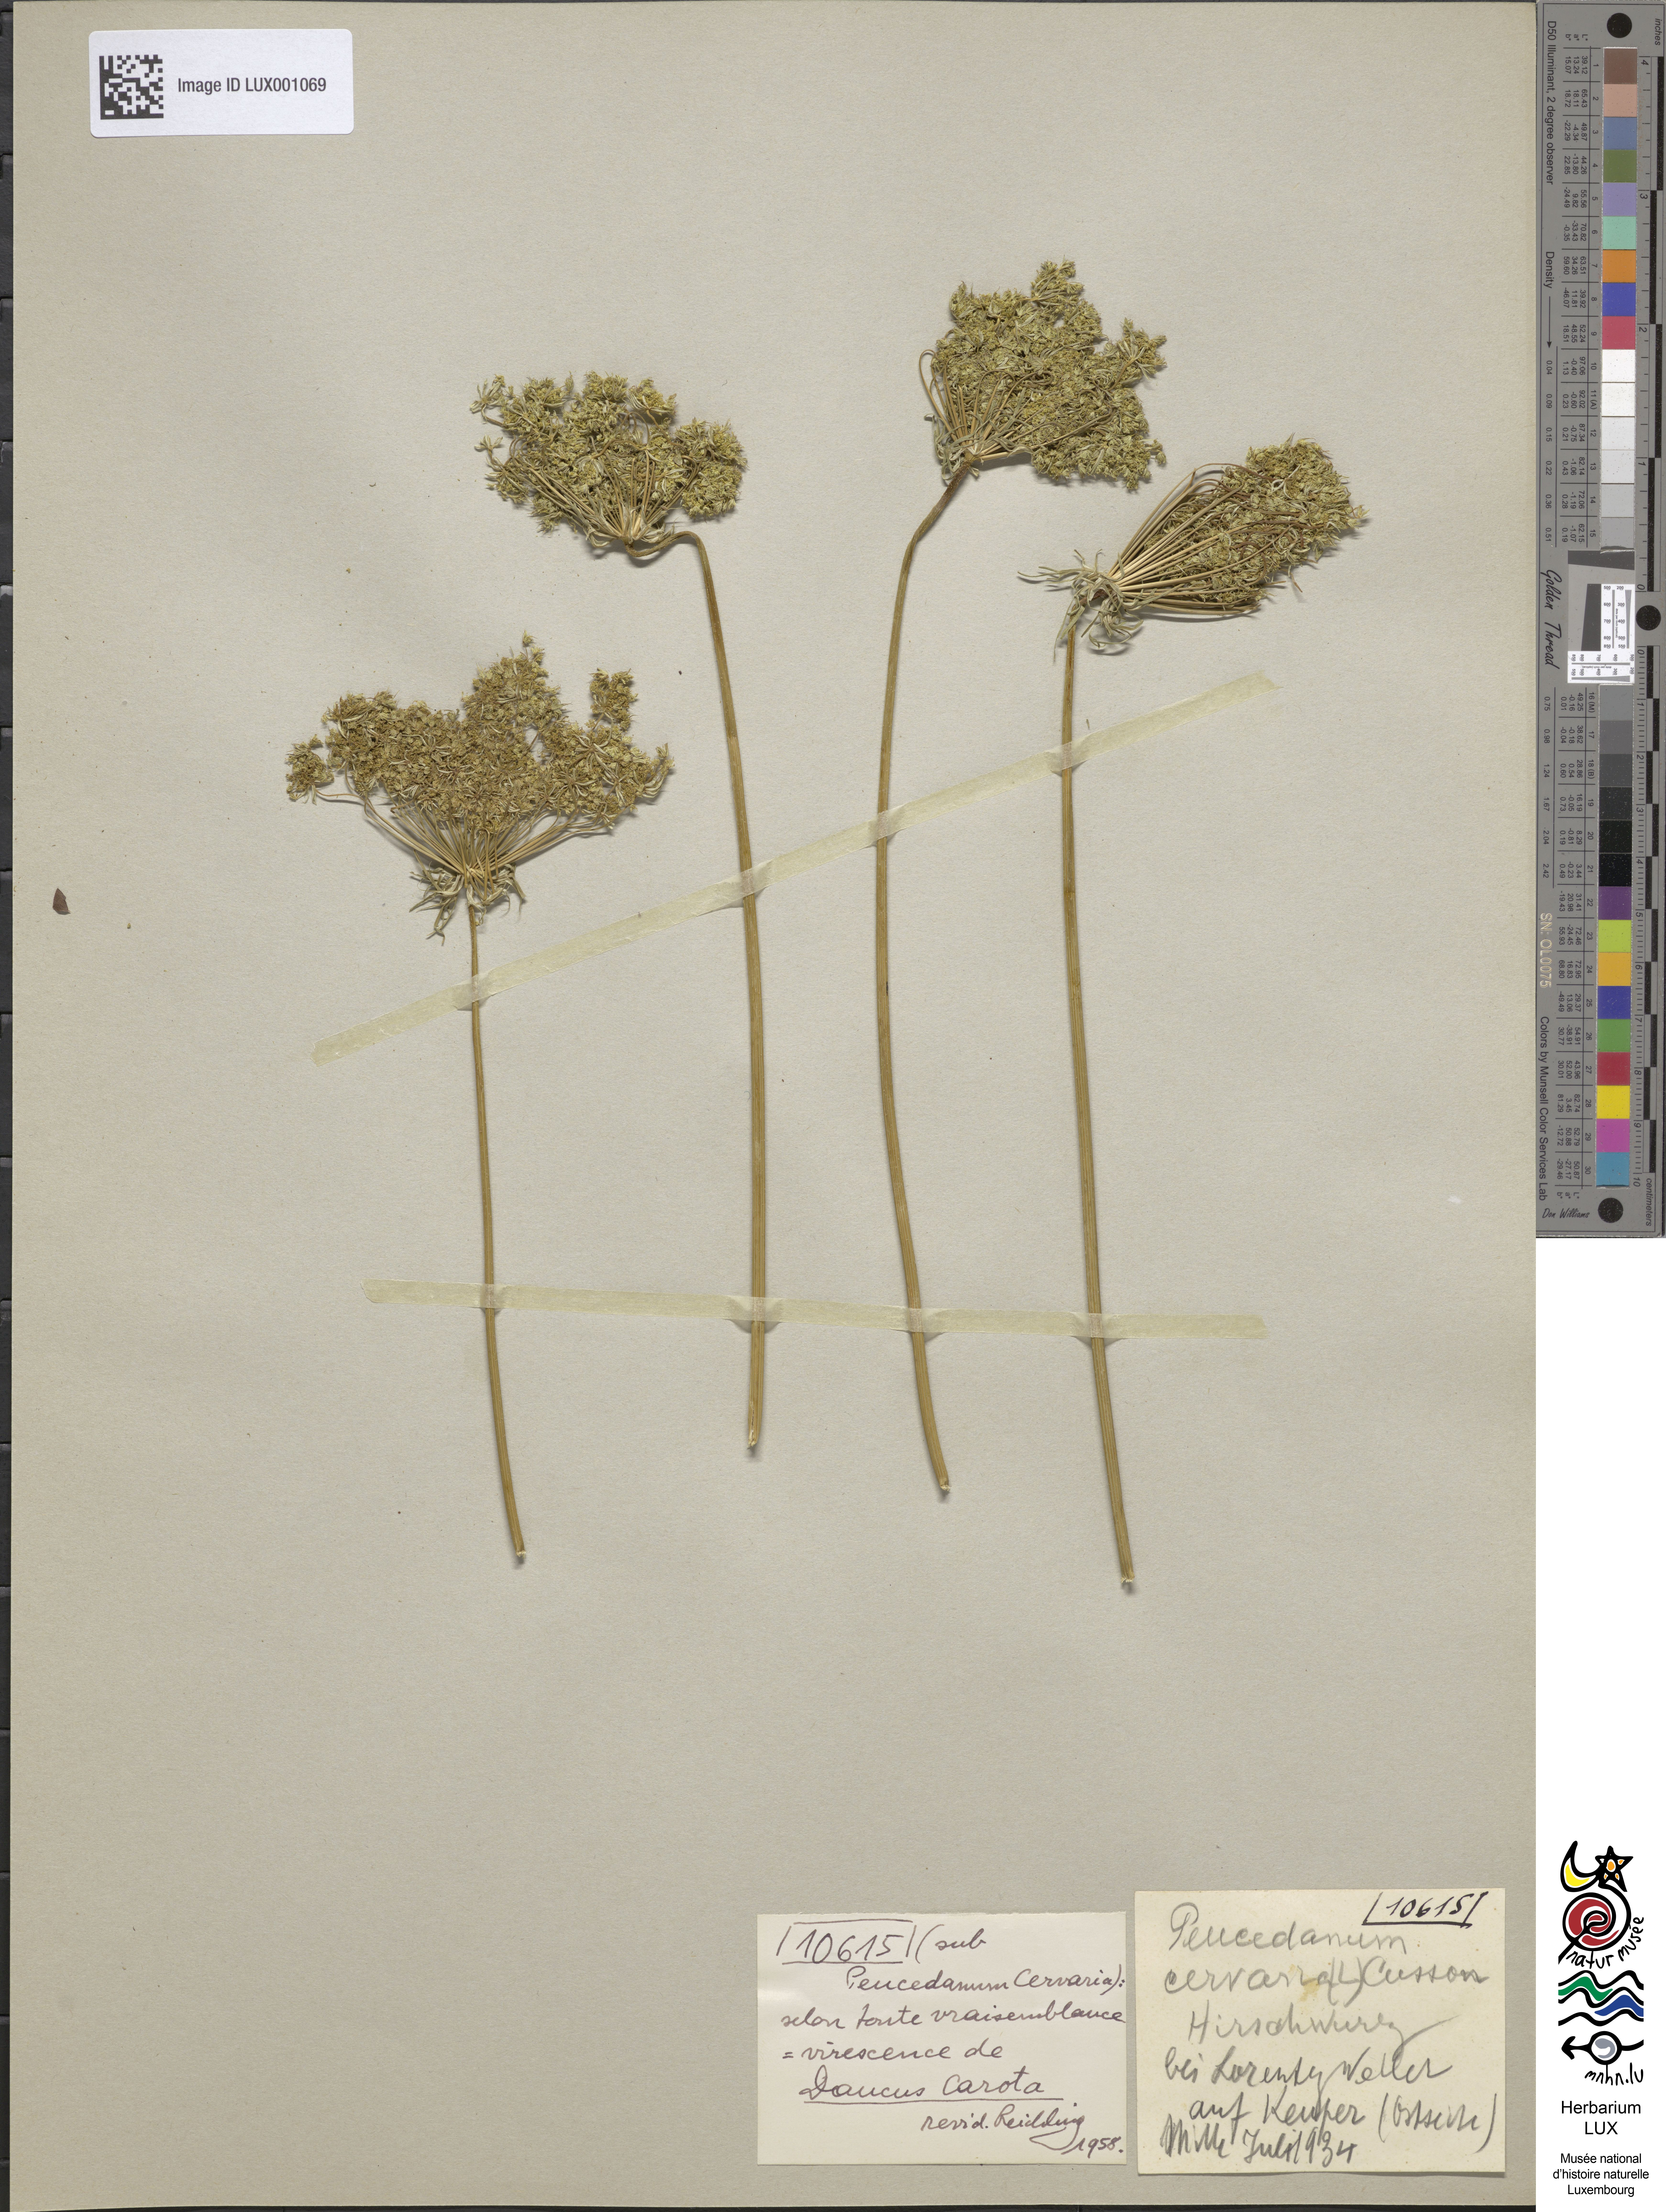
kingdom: Plantae
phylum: Tracheophyta
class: Magnoliopsida
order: Apiales
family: Apiaceae
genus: Cervaria
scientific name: Cervaria rivini
